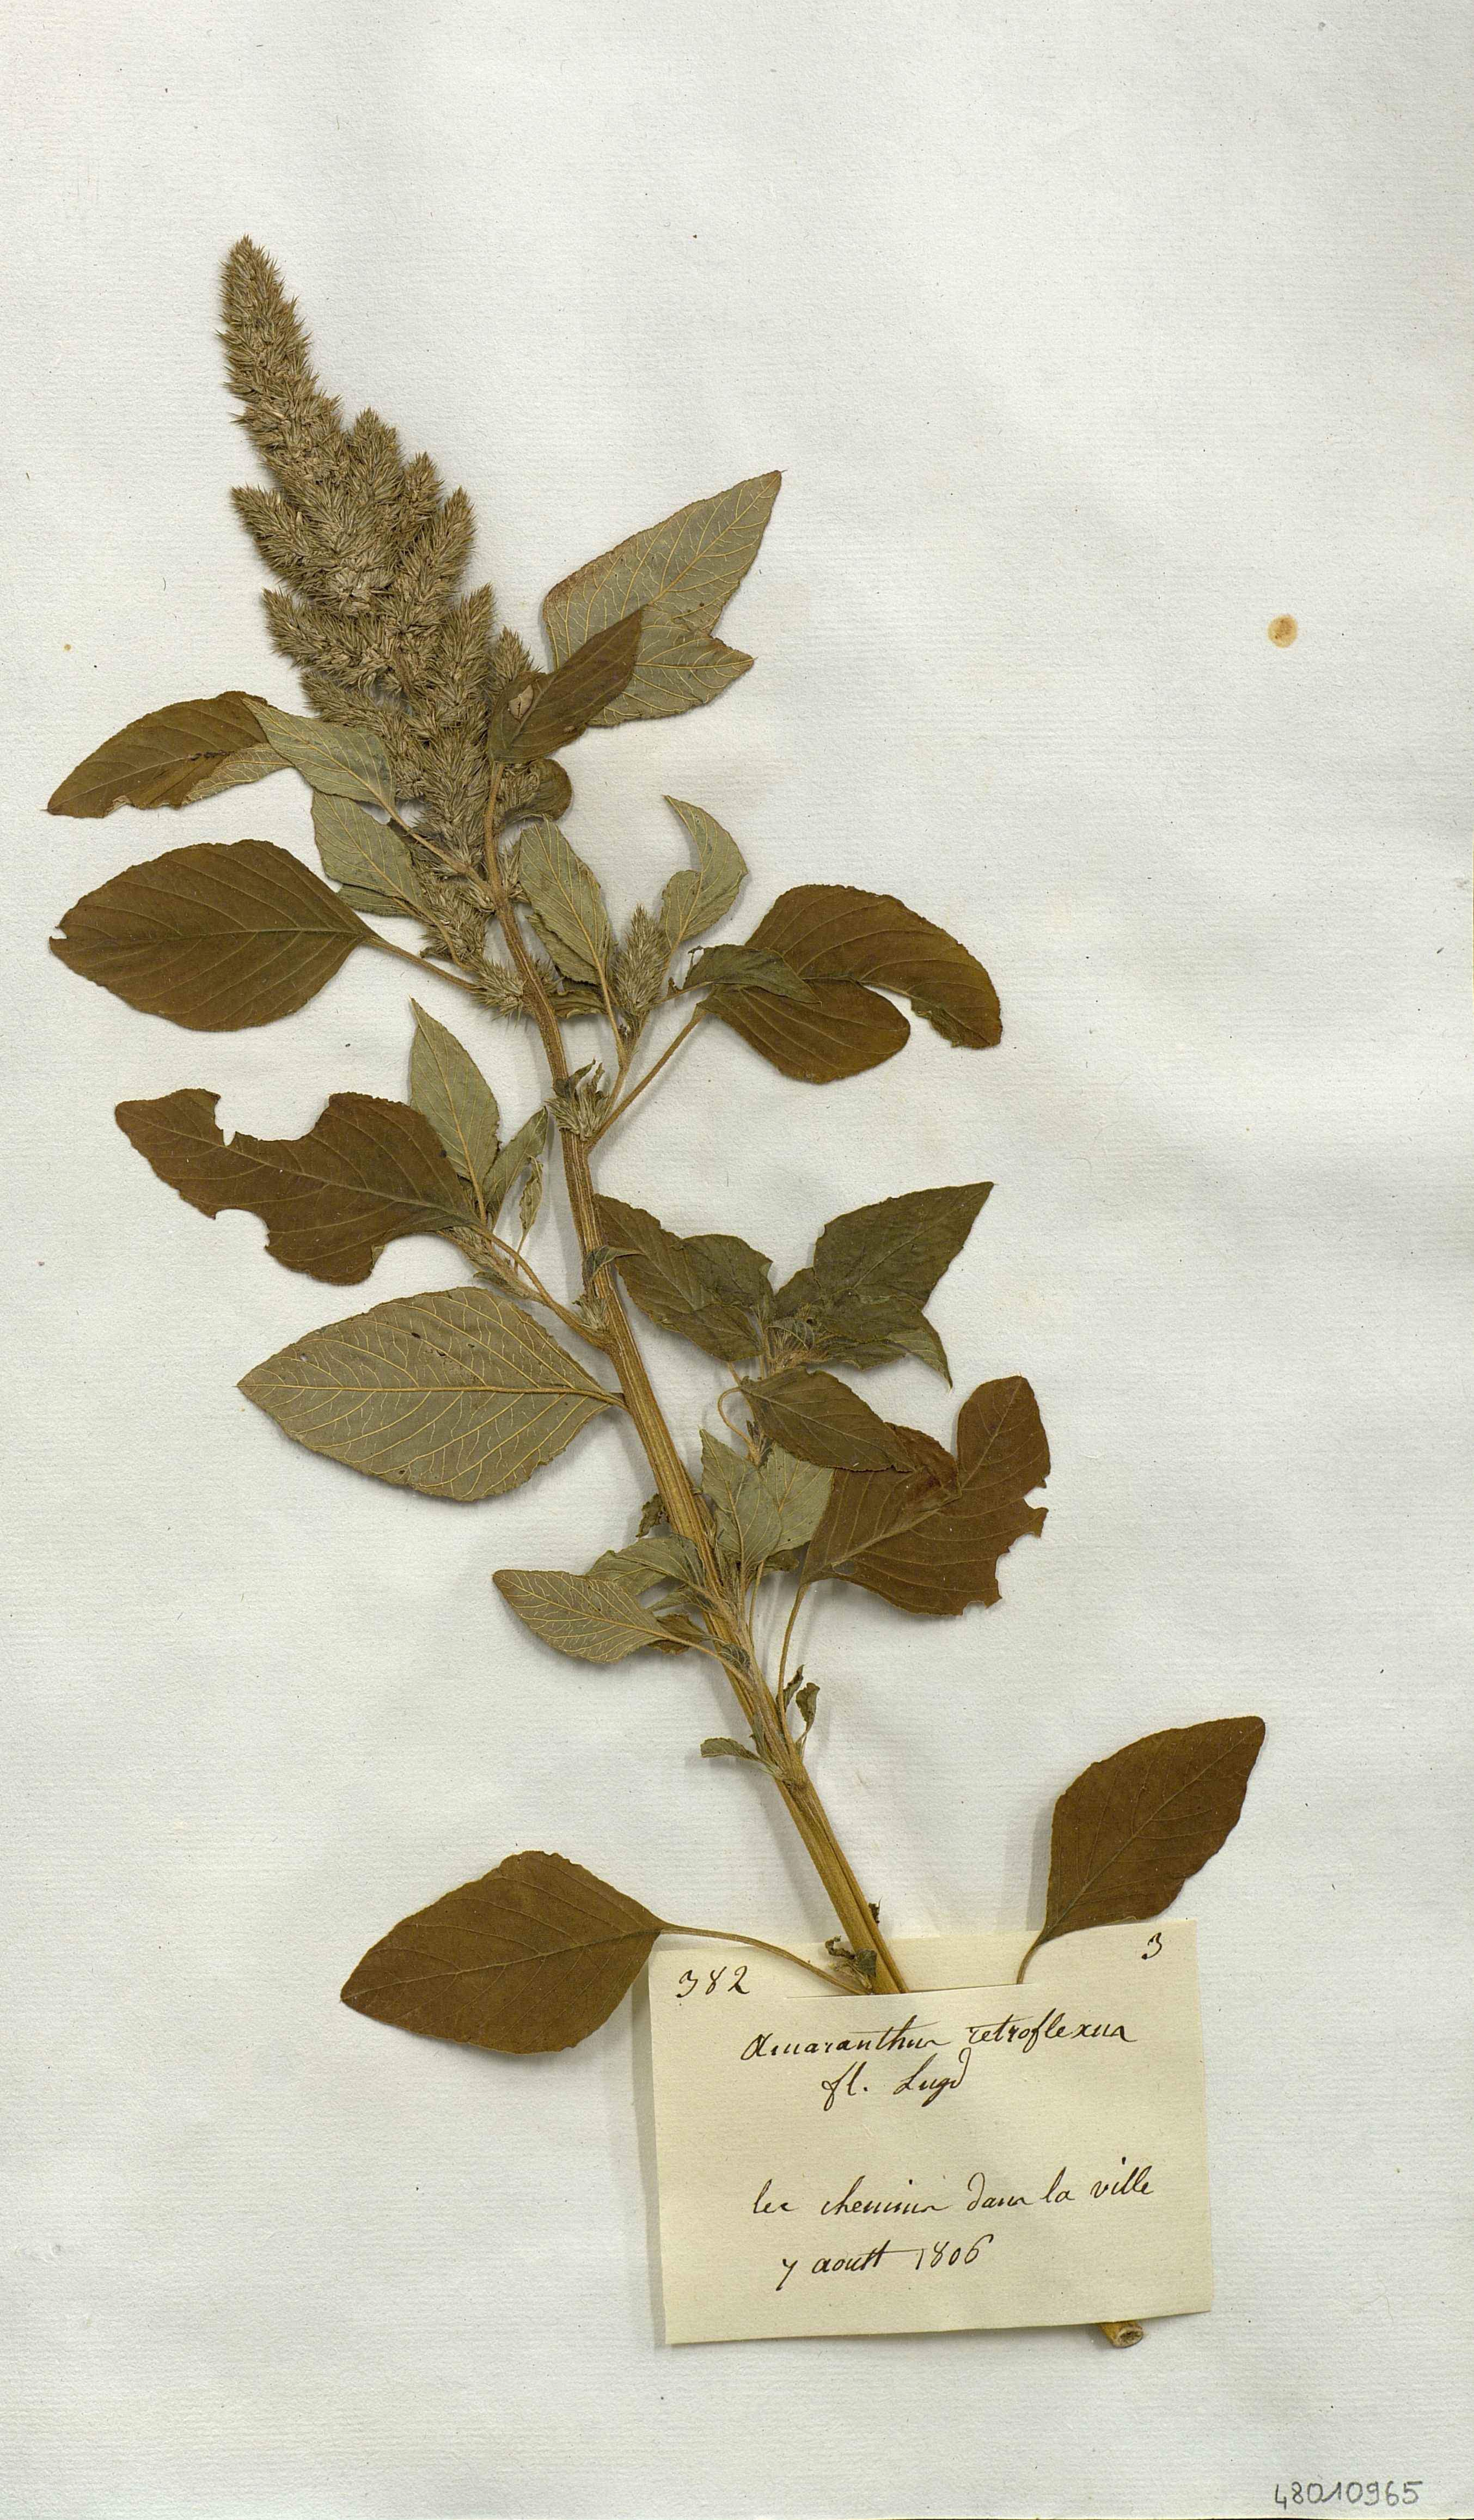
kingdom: Plantae
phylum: Tracheophyta
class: Magnoliopsida
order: Caryophyllales
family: Amaranthaceae
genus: Amaranthus
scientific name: Amaranthus retroflexus
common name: Redroot amaranth
